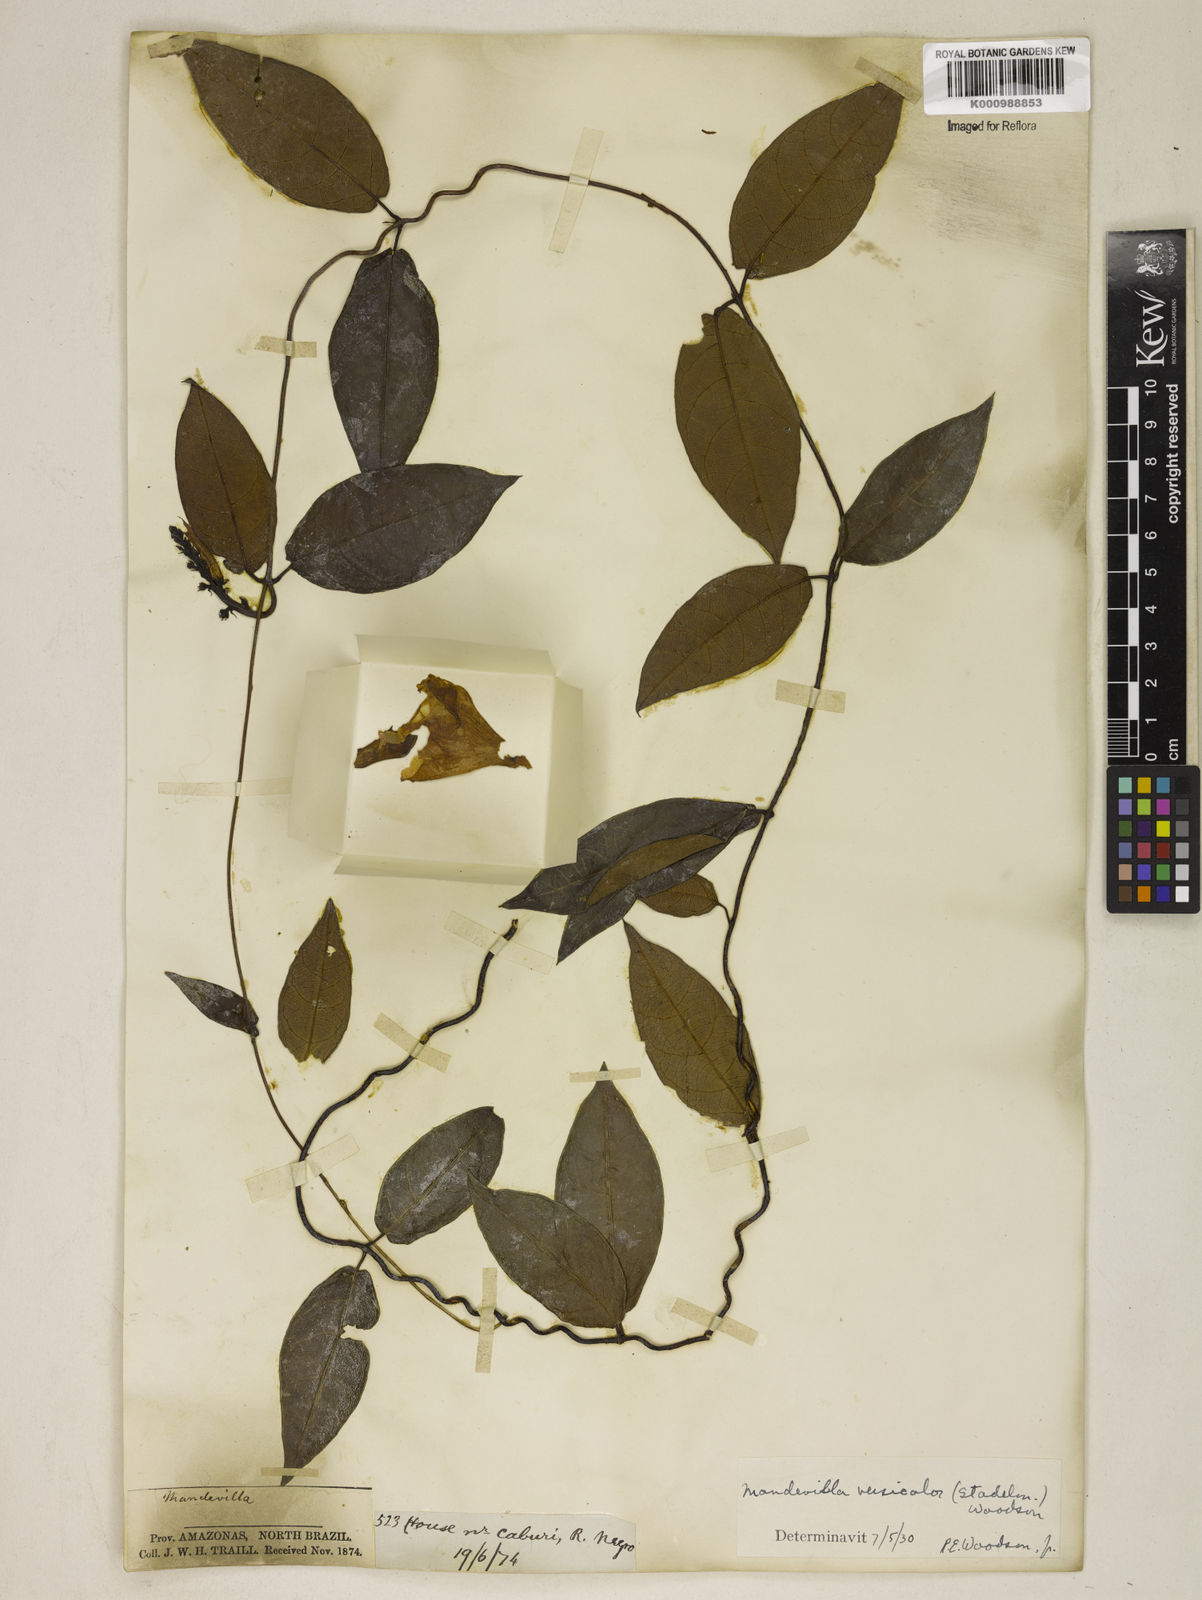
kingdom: Plantae
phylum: Tracheophyta
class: Magnoliopsida
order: Gentianales
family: Apocynaceae
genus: Mandevilla
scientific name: Mandevilla scabra
